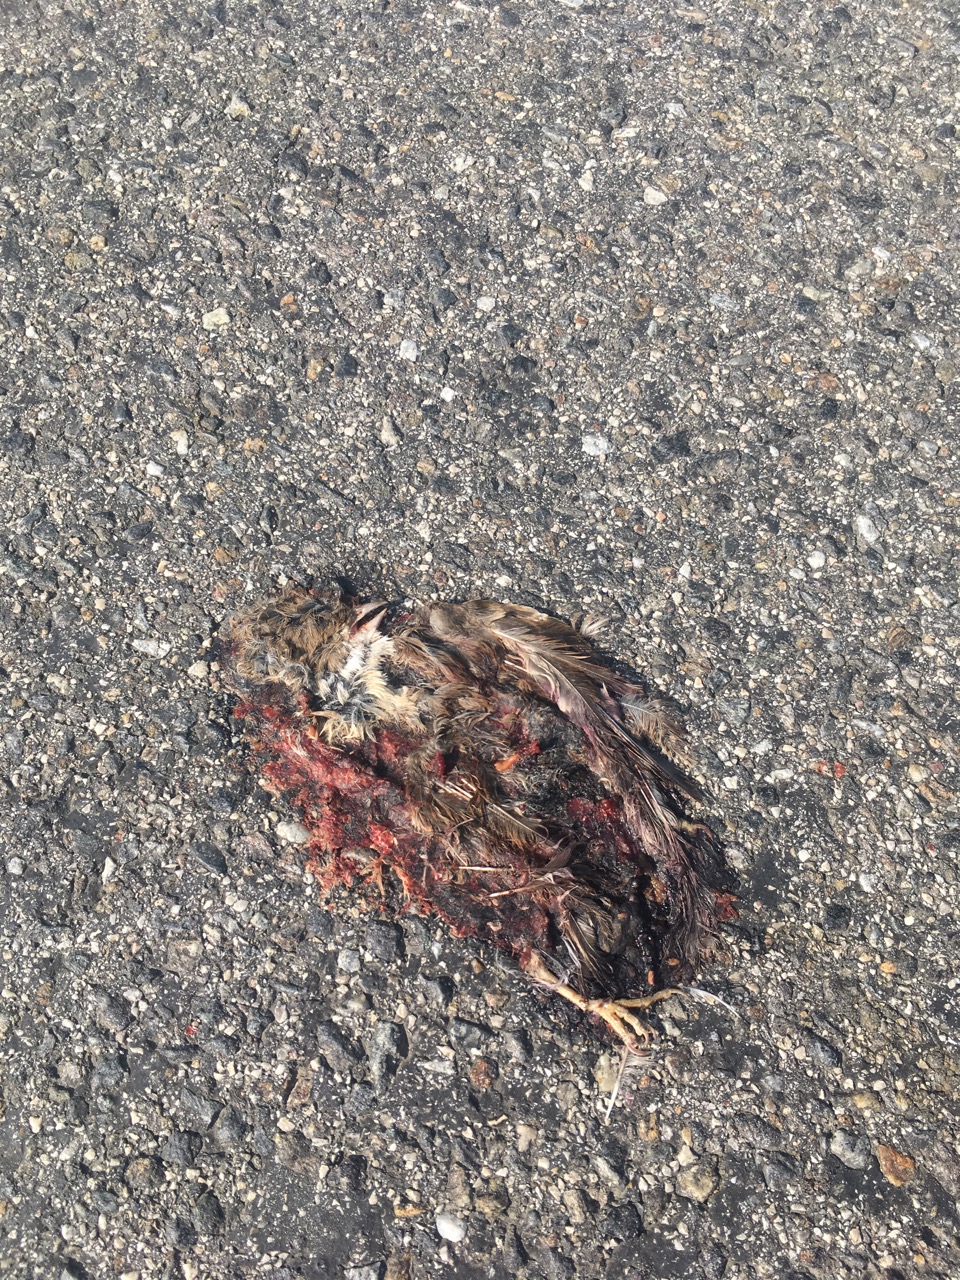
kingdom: Animalia
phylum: Chordata
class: Aves
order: Passeriformes
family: Passeridae
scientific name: Passeridae
